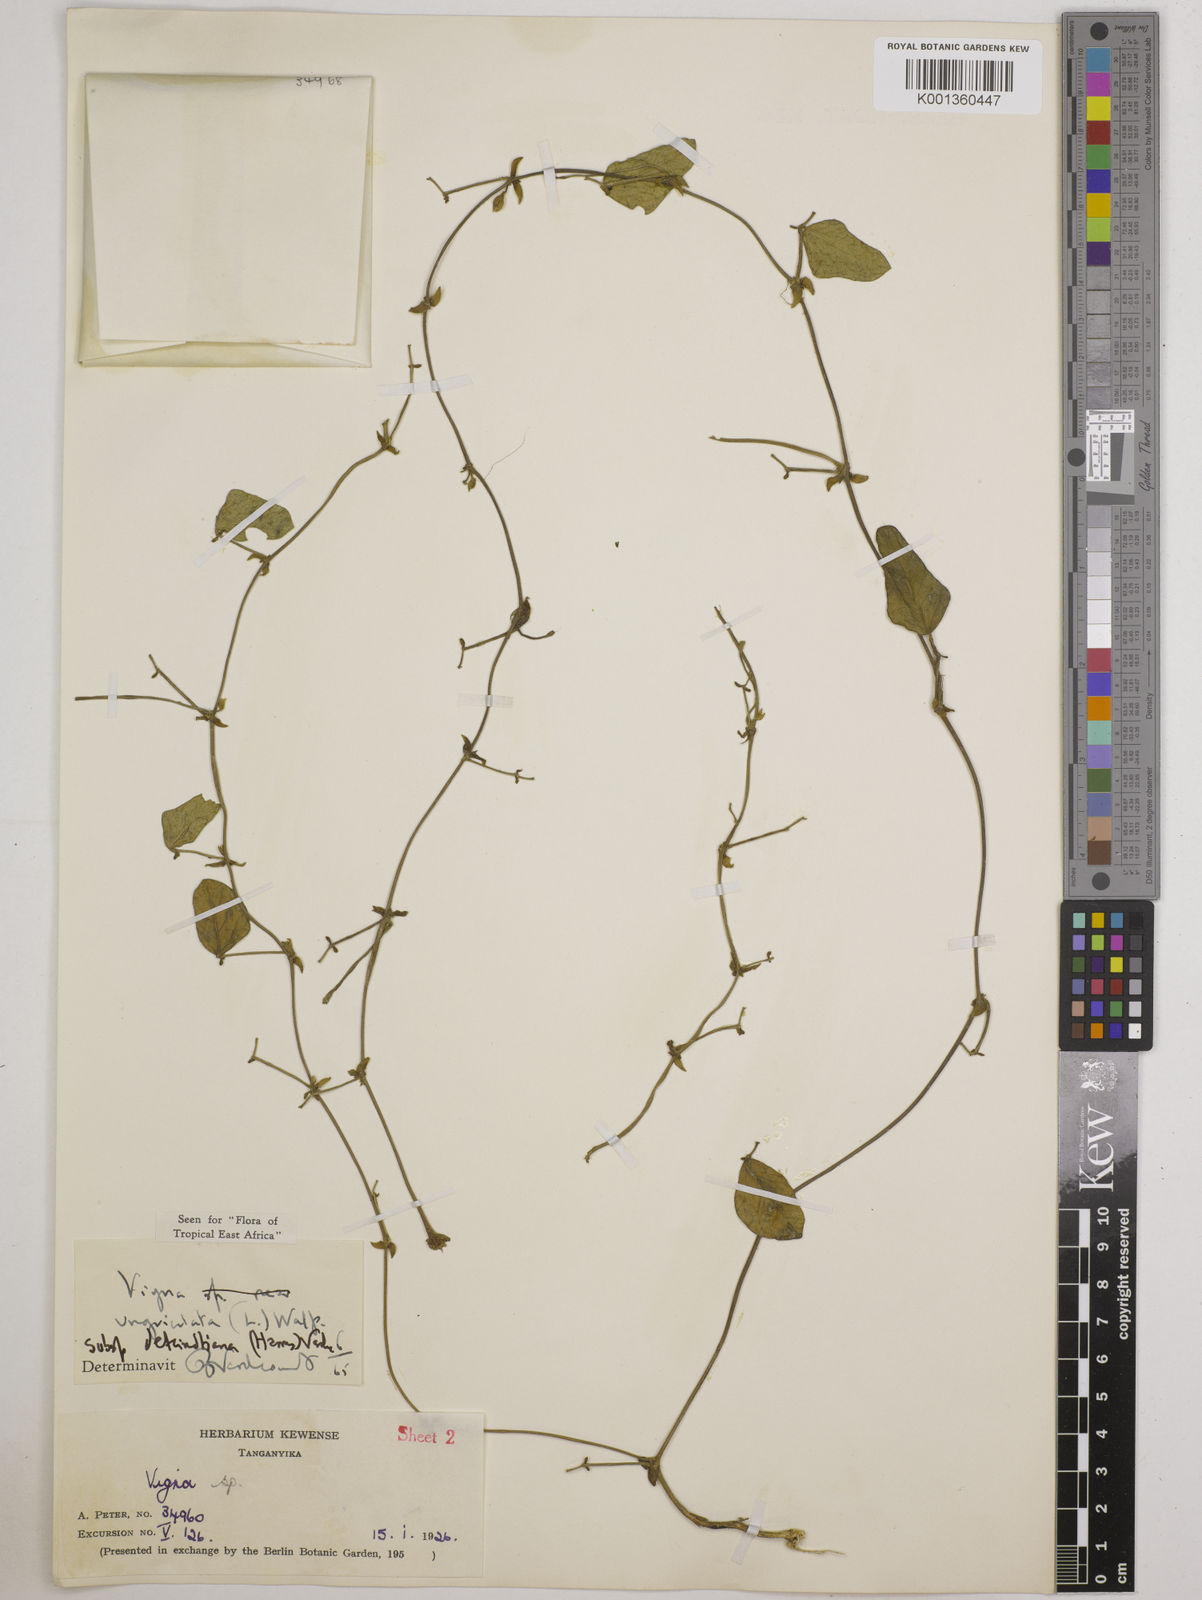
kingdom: Plantae
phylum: Tracheophyta
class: Magnoliopsida
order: Fabales
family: Fabaceae
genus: Vigna
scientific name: Vigna
